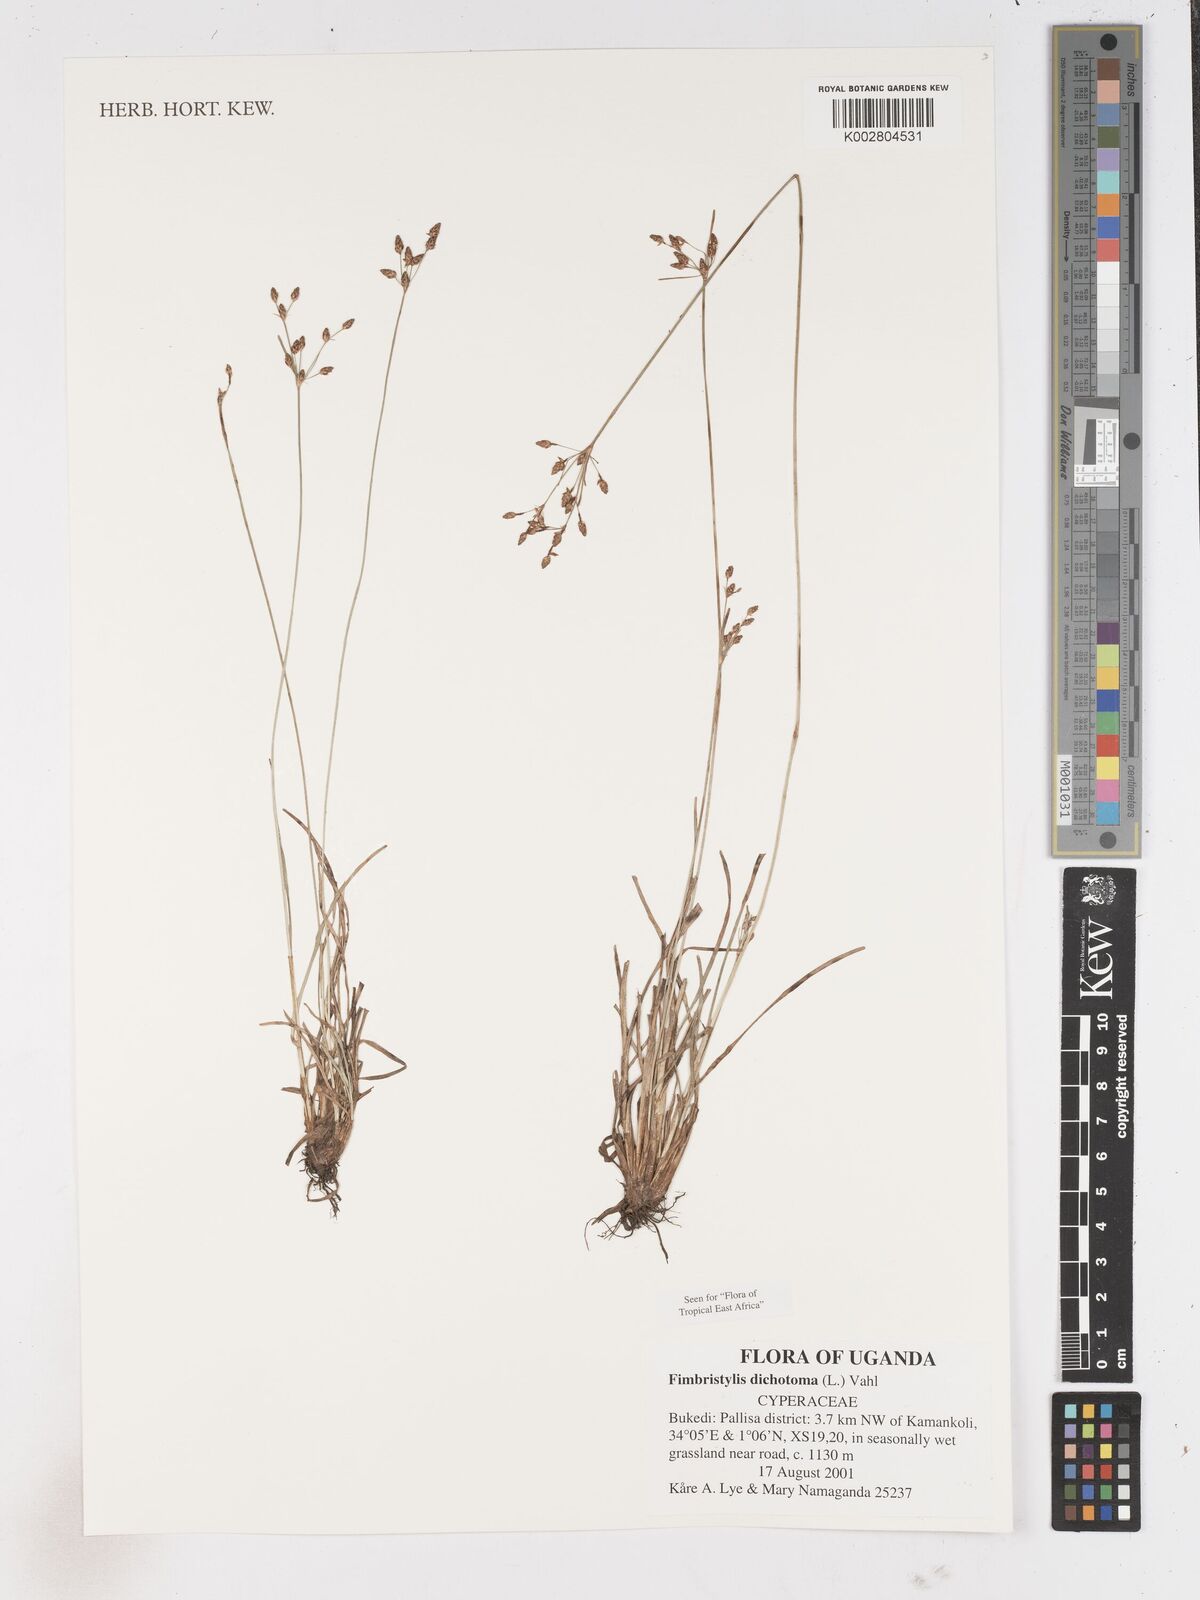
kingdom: Plantae
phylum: Tracheophyta
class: Liliopsida
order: Poales
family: Cyperaceae
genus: Fimbristylis
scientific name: Fimbristylis dichotoma
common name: Forked fimbry
